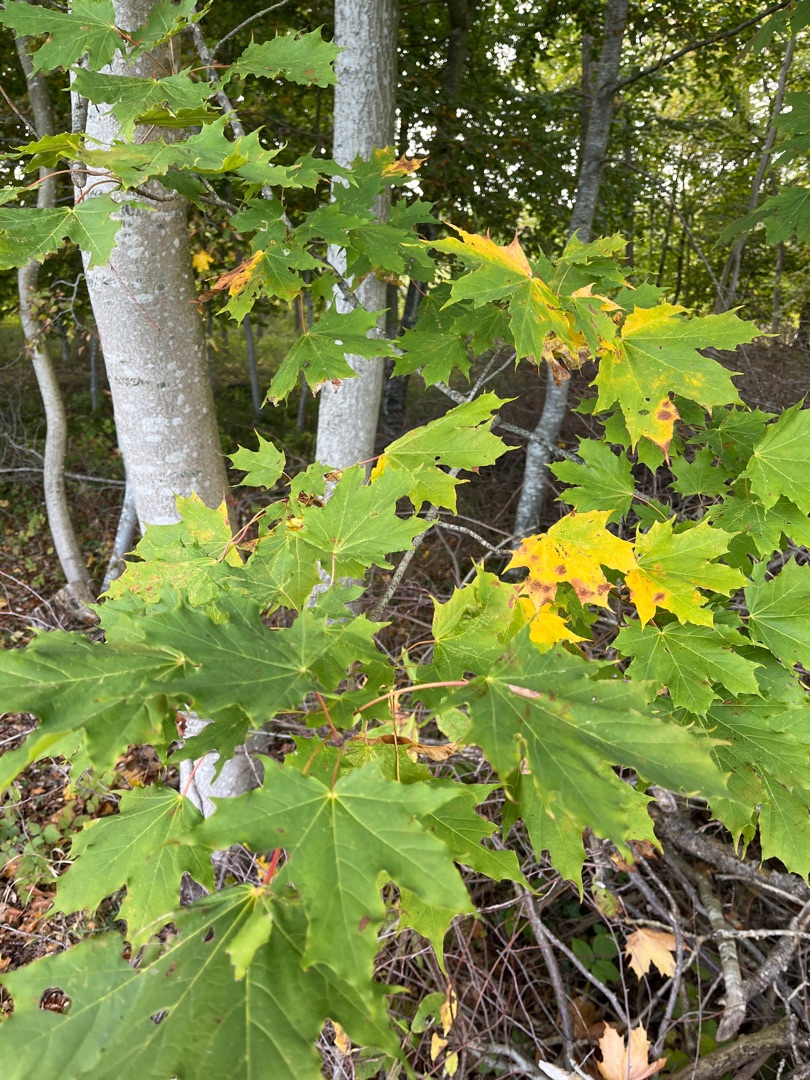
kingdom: Plantae
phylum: Tracheophyta
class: Magnoliopsida
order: Sapindales
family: Sapindaceae
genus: Acer
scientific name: Acer platanoides
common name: Spids-løn
